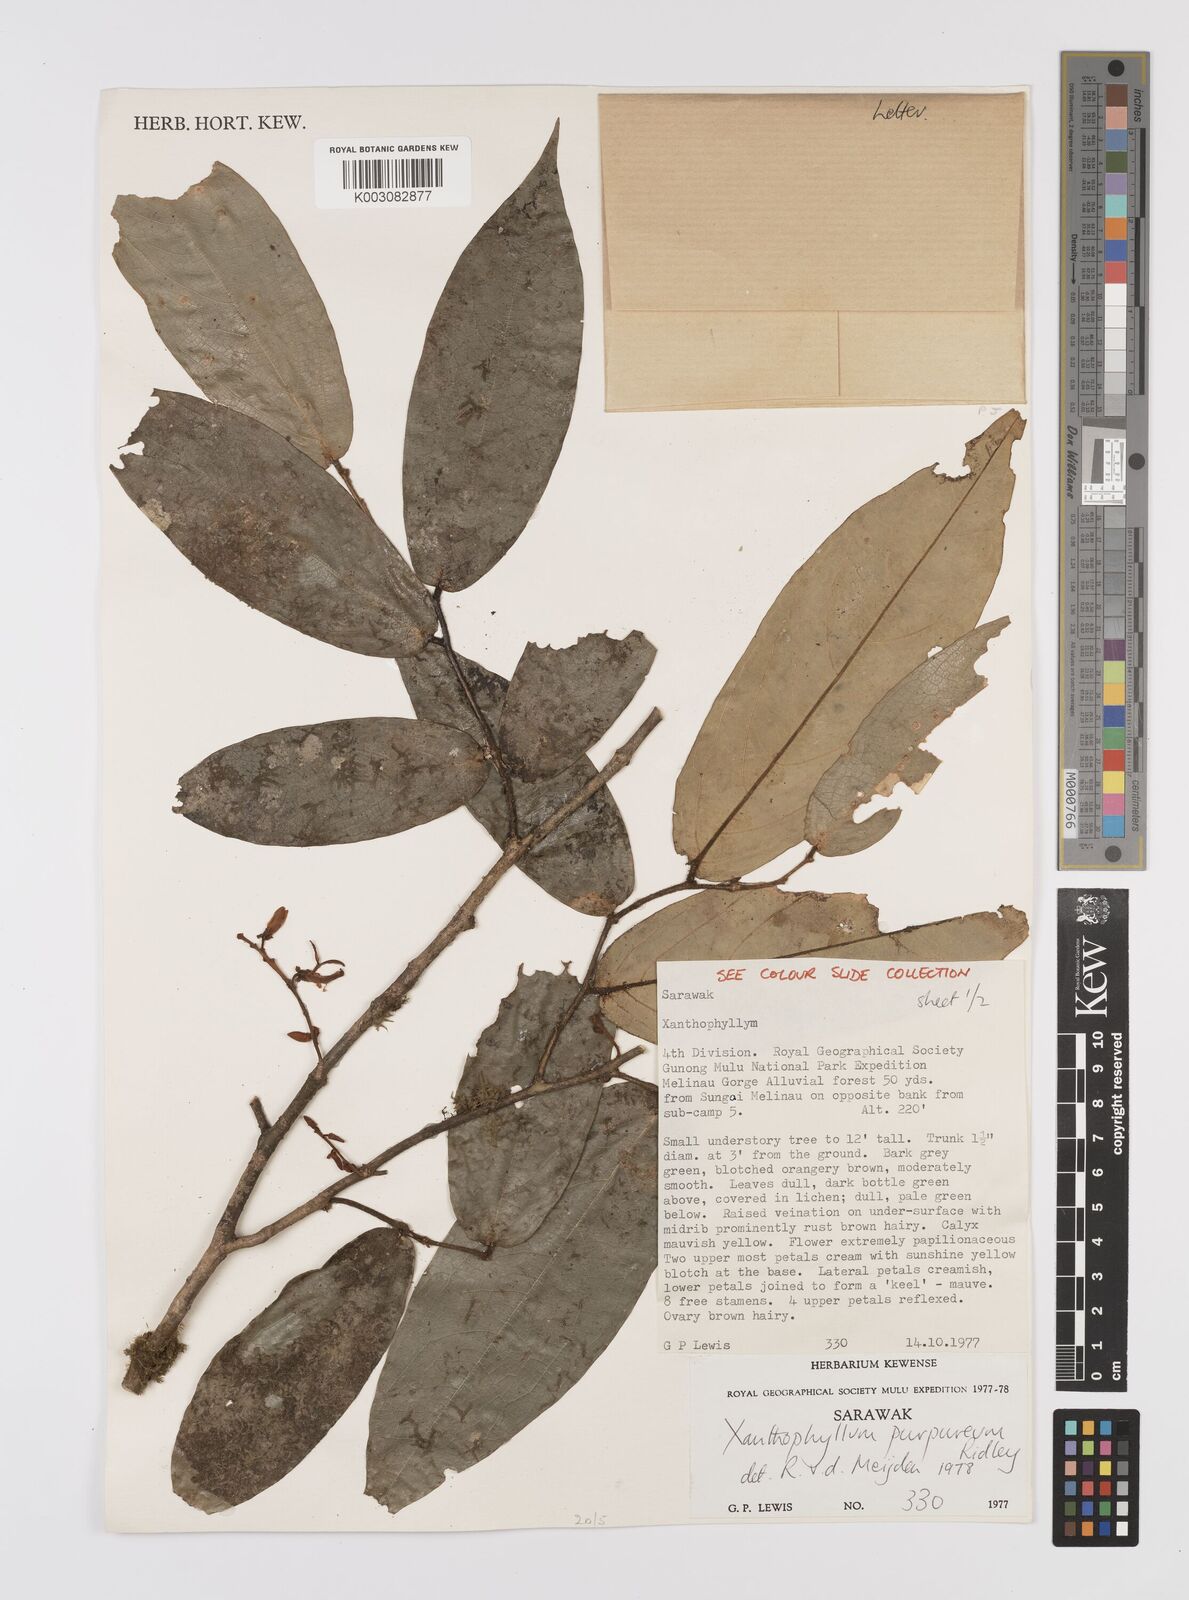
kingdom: Plantae
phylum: Tracheophyta
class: Magnoliopsida
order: Fabales
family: Polygalaceae
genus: Xanthophyllum
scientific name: Xanthophyllum purpureum
